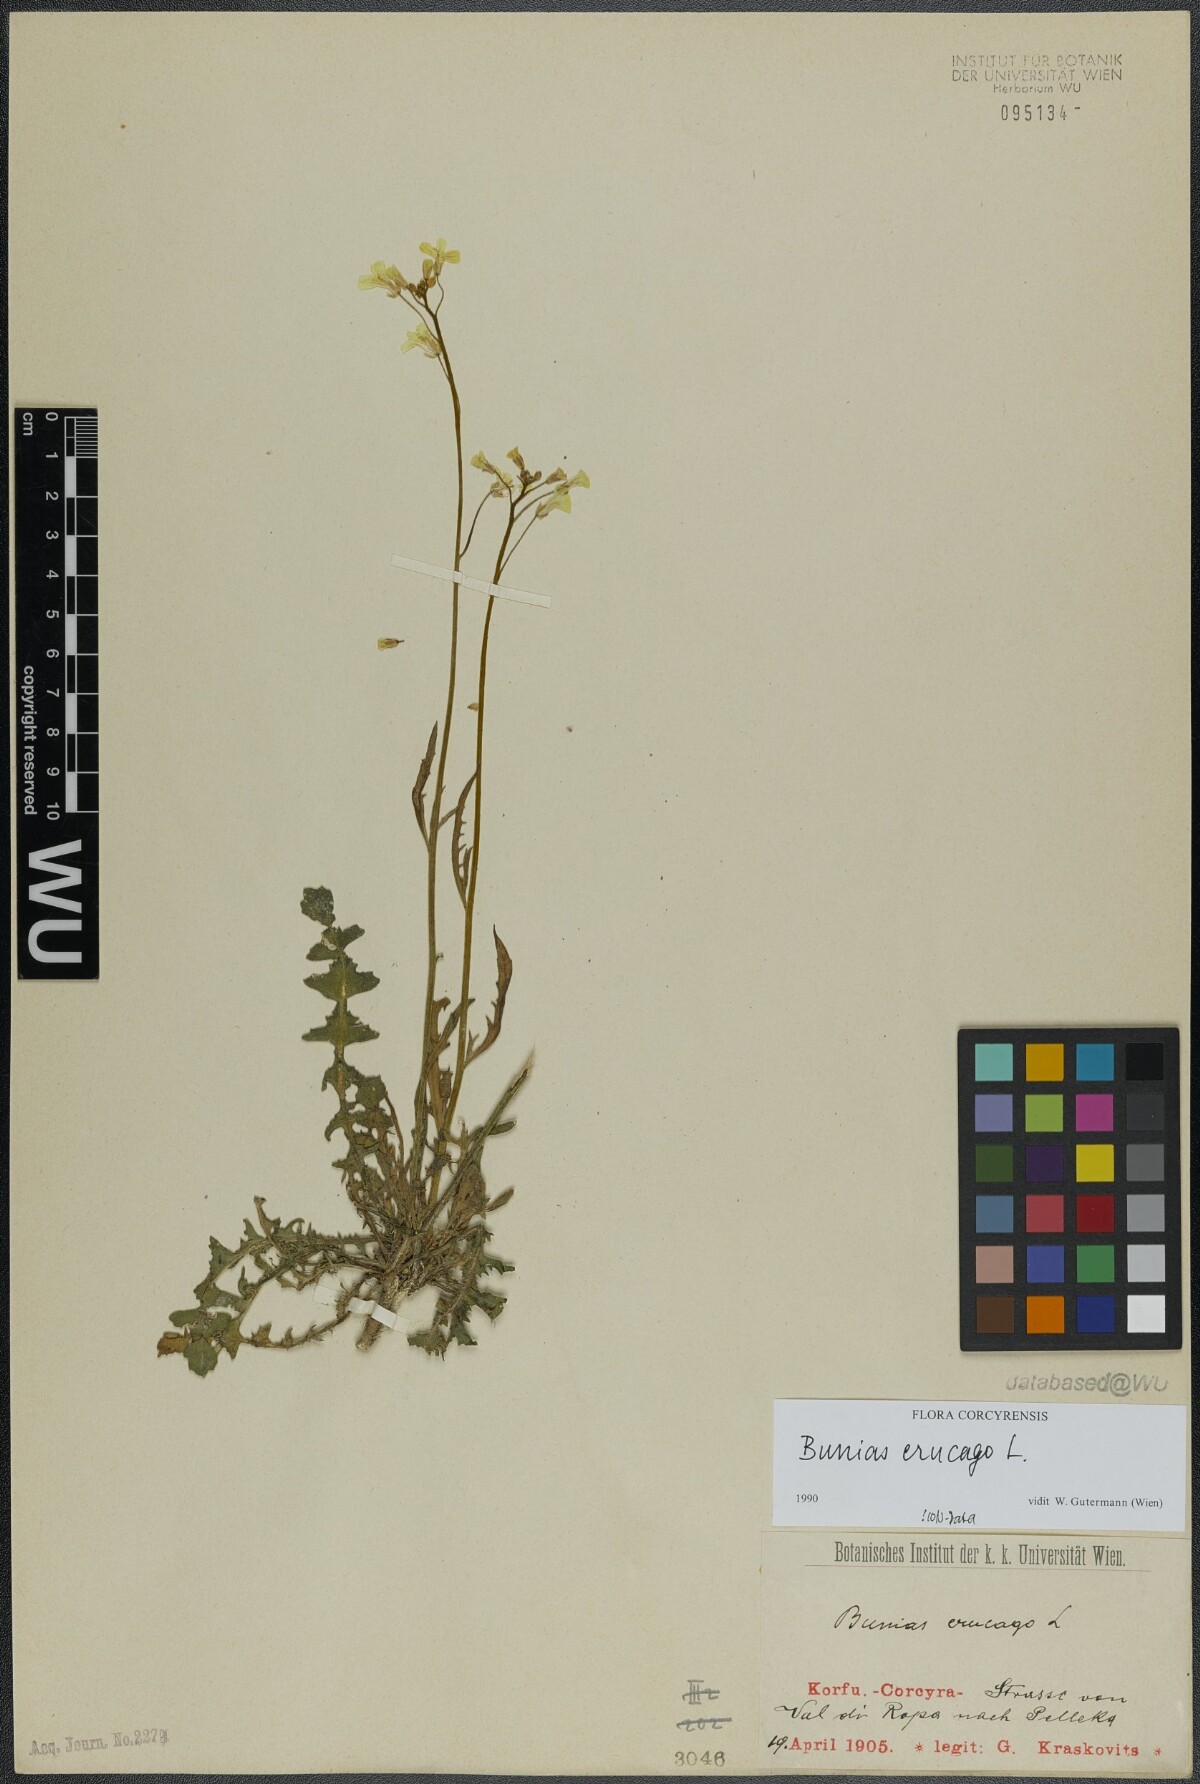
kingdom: Plantae
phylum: Tracheophyta
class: Magnoliopsida
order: Brassicales
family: Brassicaceae
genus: Bunias
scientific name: Bunias erucago
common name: Southern warty-cabbage
